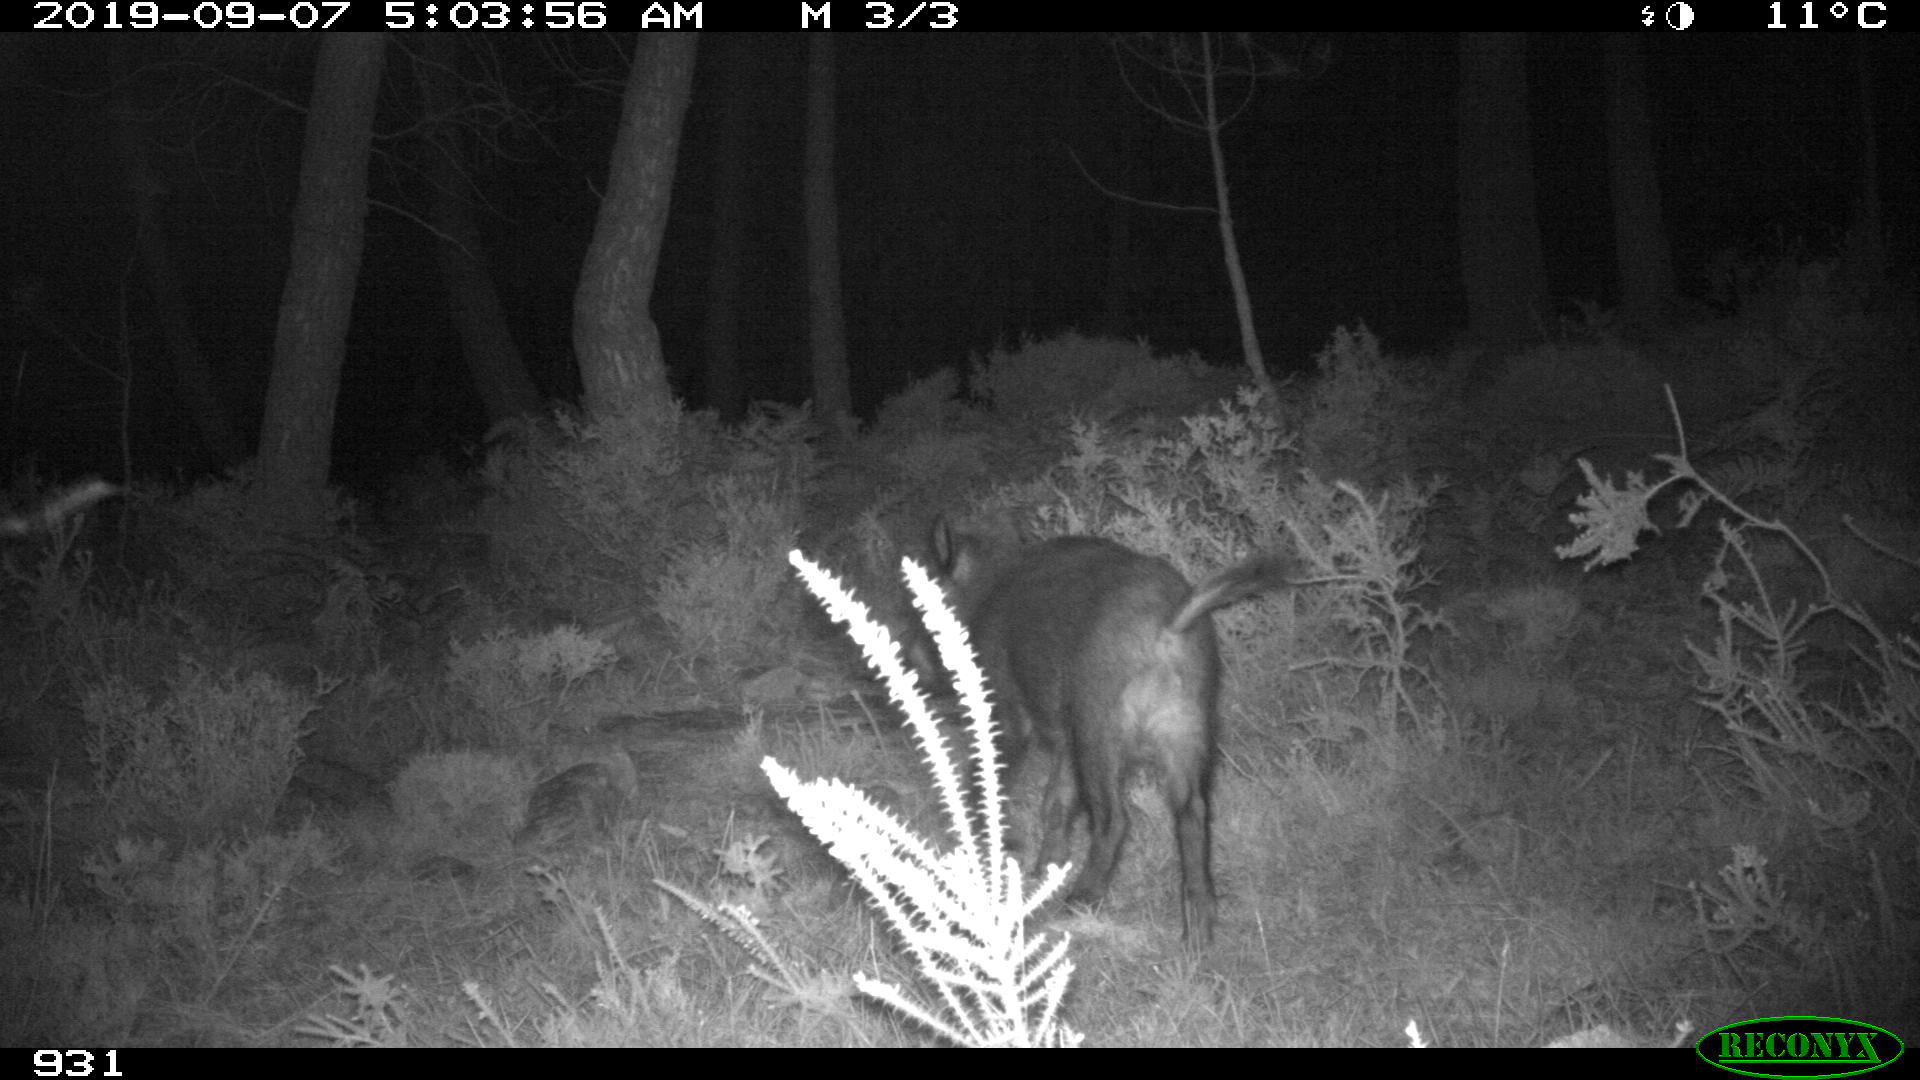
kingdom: Animalia
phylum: Chordata
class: Mammalia
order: Artiodactyla
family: Suidae
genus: Sus
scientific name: Sus scrofa
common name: Wild boar
